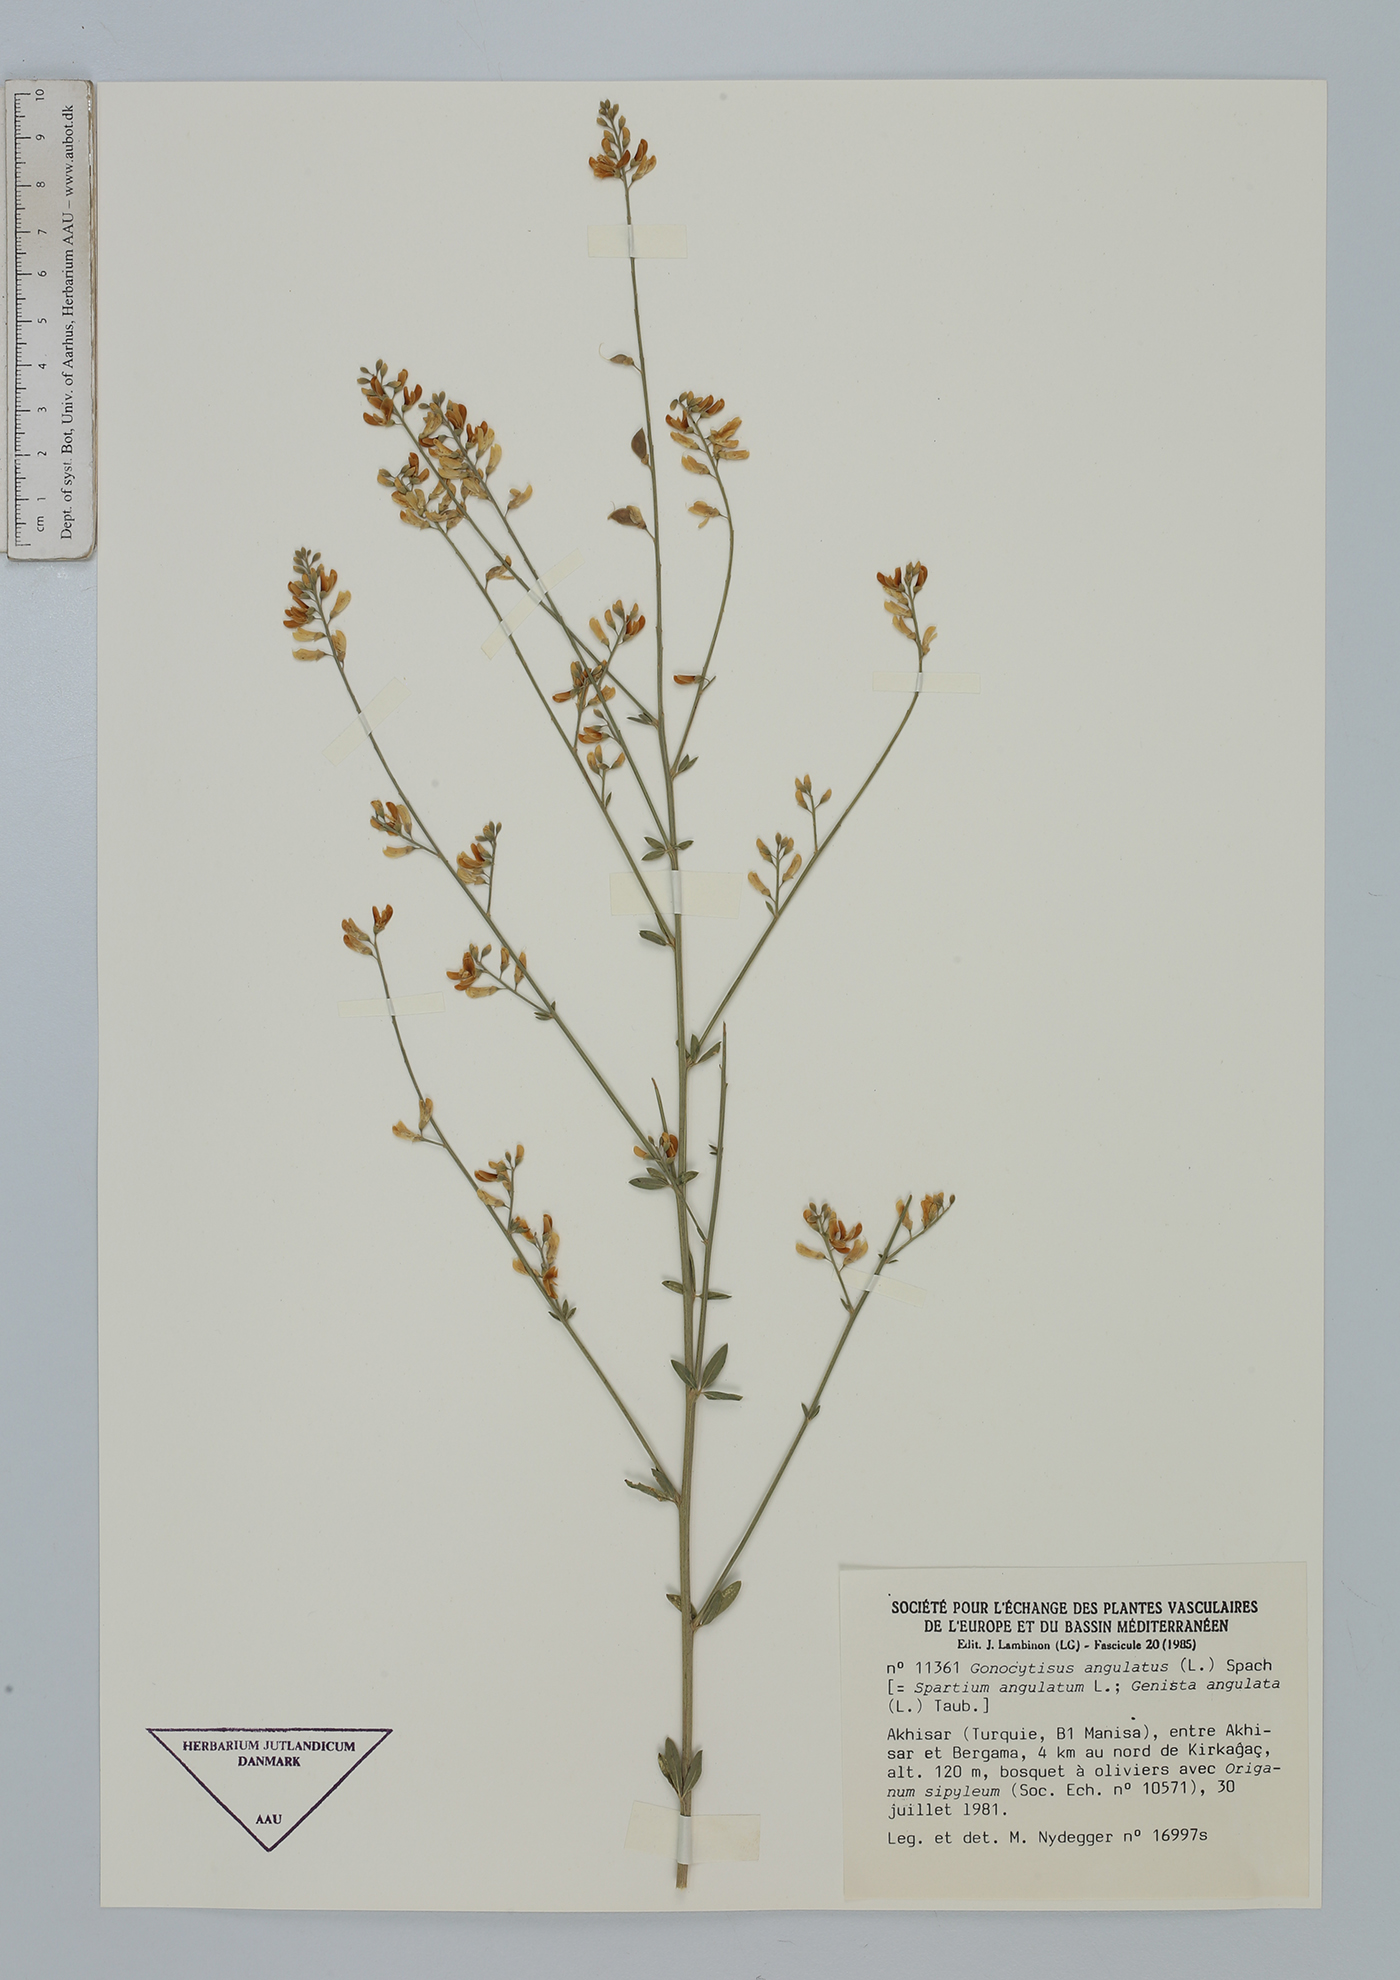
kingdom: Plantae
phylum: Tracheophyta
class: Magnoliopsida
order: Fabales
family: Fabaceae
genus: Gonocytisus
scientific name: Gonocytisus angulatus
